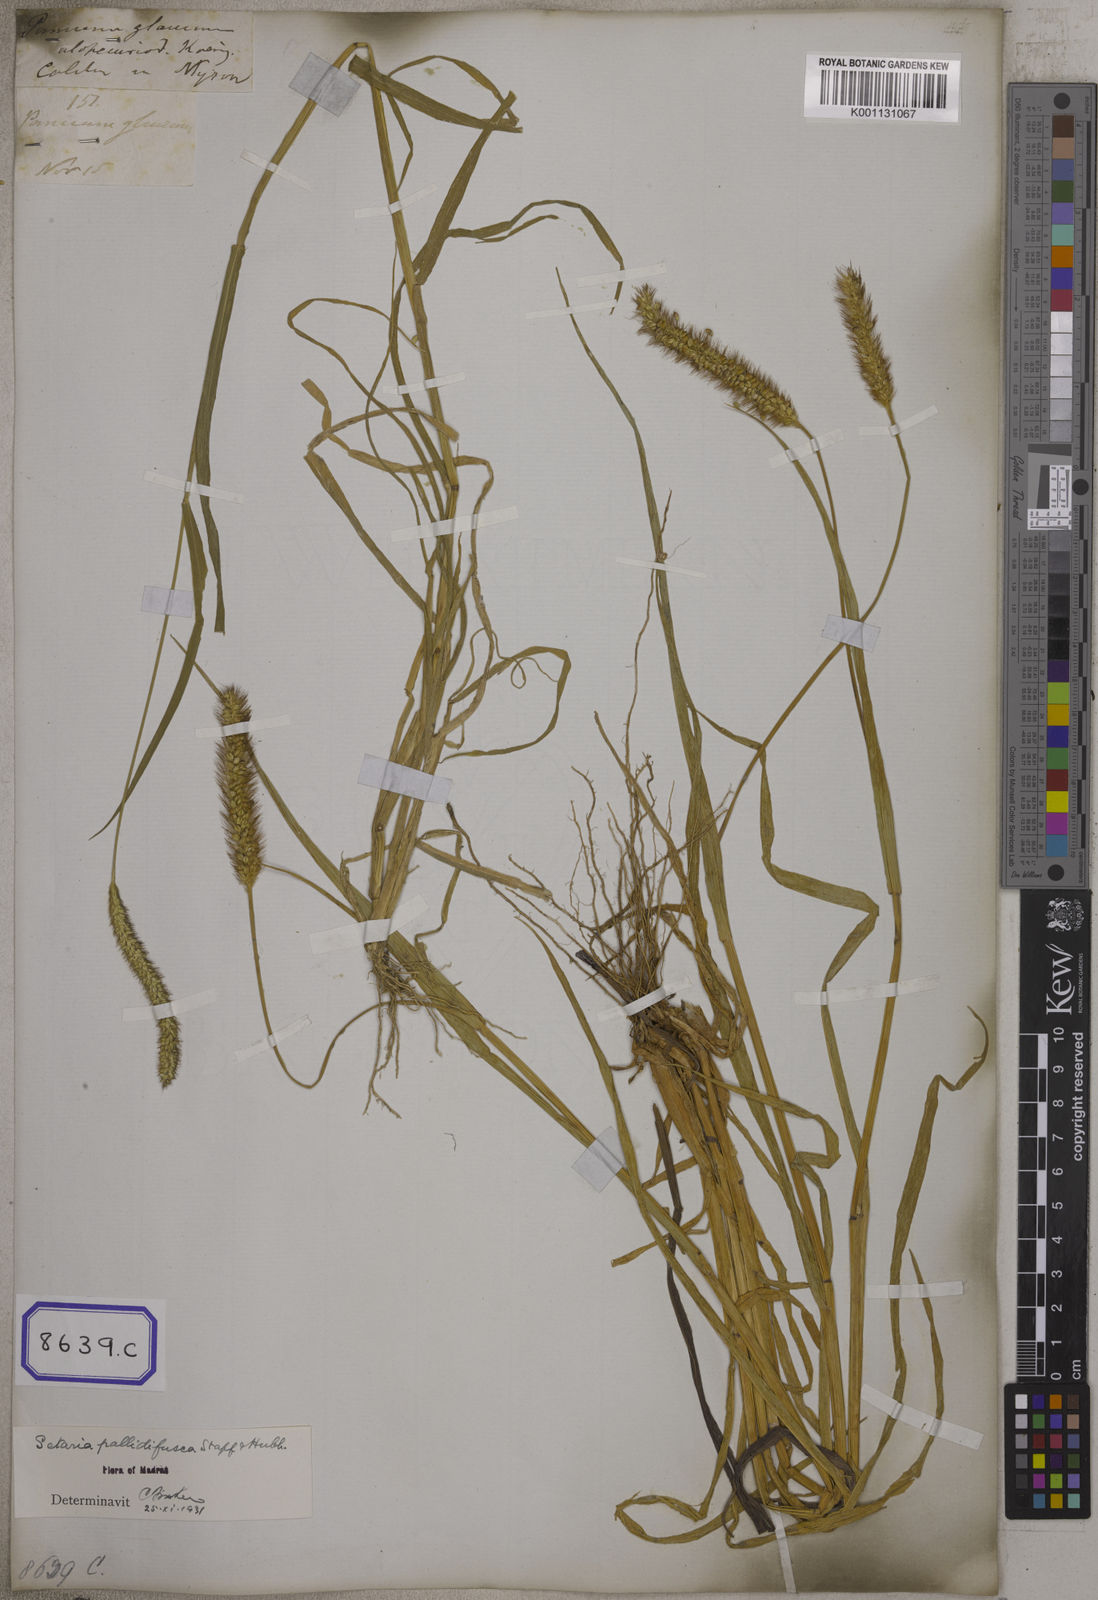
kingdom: Plantae
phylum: Tracheophyta
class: Liliopsida
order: Poales
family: Poaceae
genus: Cenchrus
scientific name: Cenchrus americanus
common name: Pearl millet
